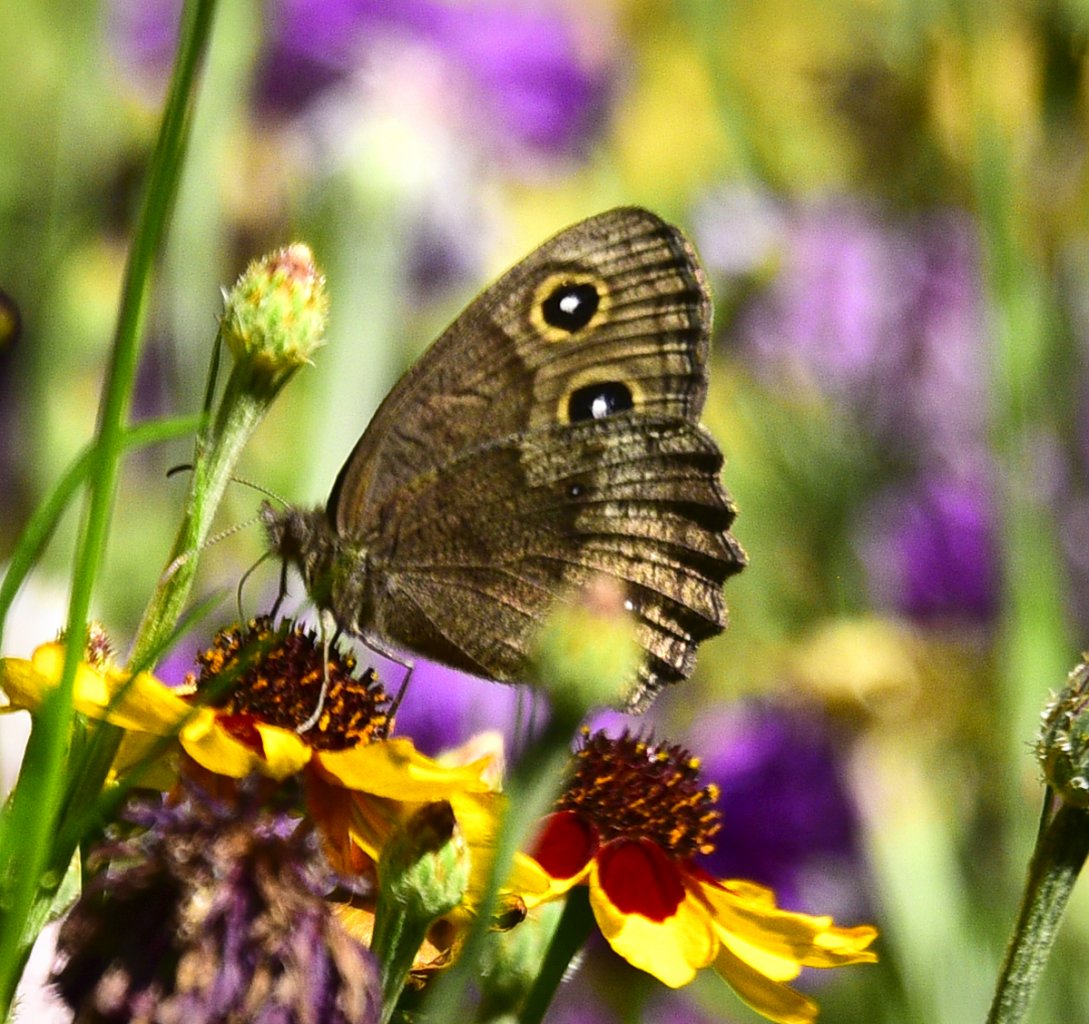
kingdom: Animalia
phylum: Arthropoda
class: Insecta
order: Lepidoptera
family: Nymphalidae
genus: Cercyonis
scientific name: Cercyonis pegala
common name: Common Wood-Nymph
